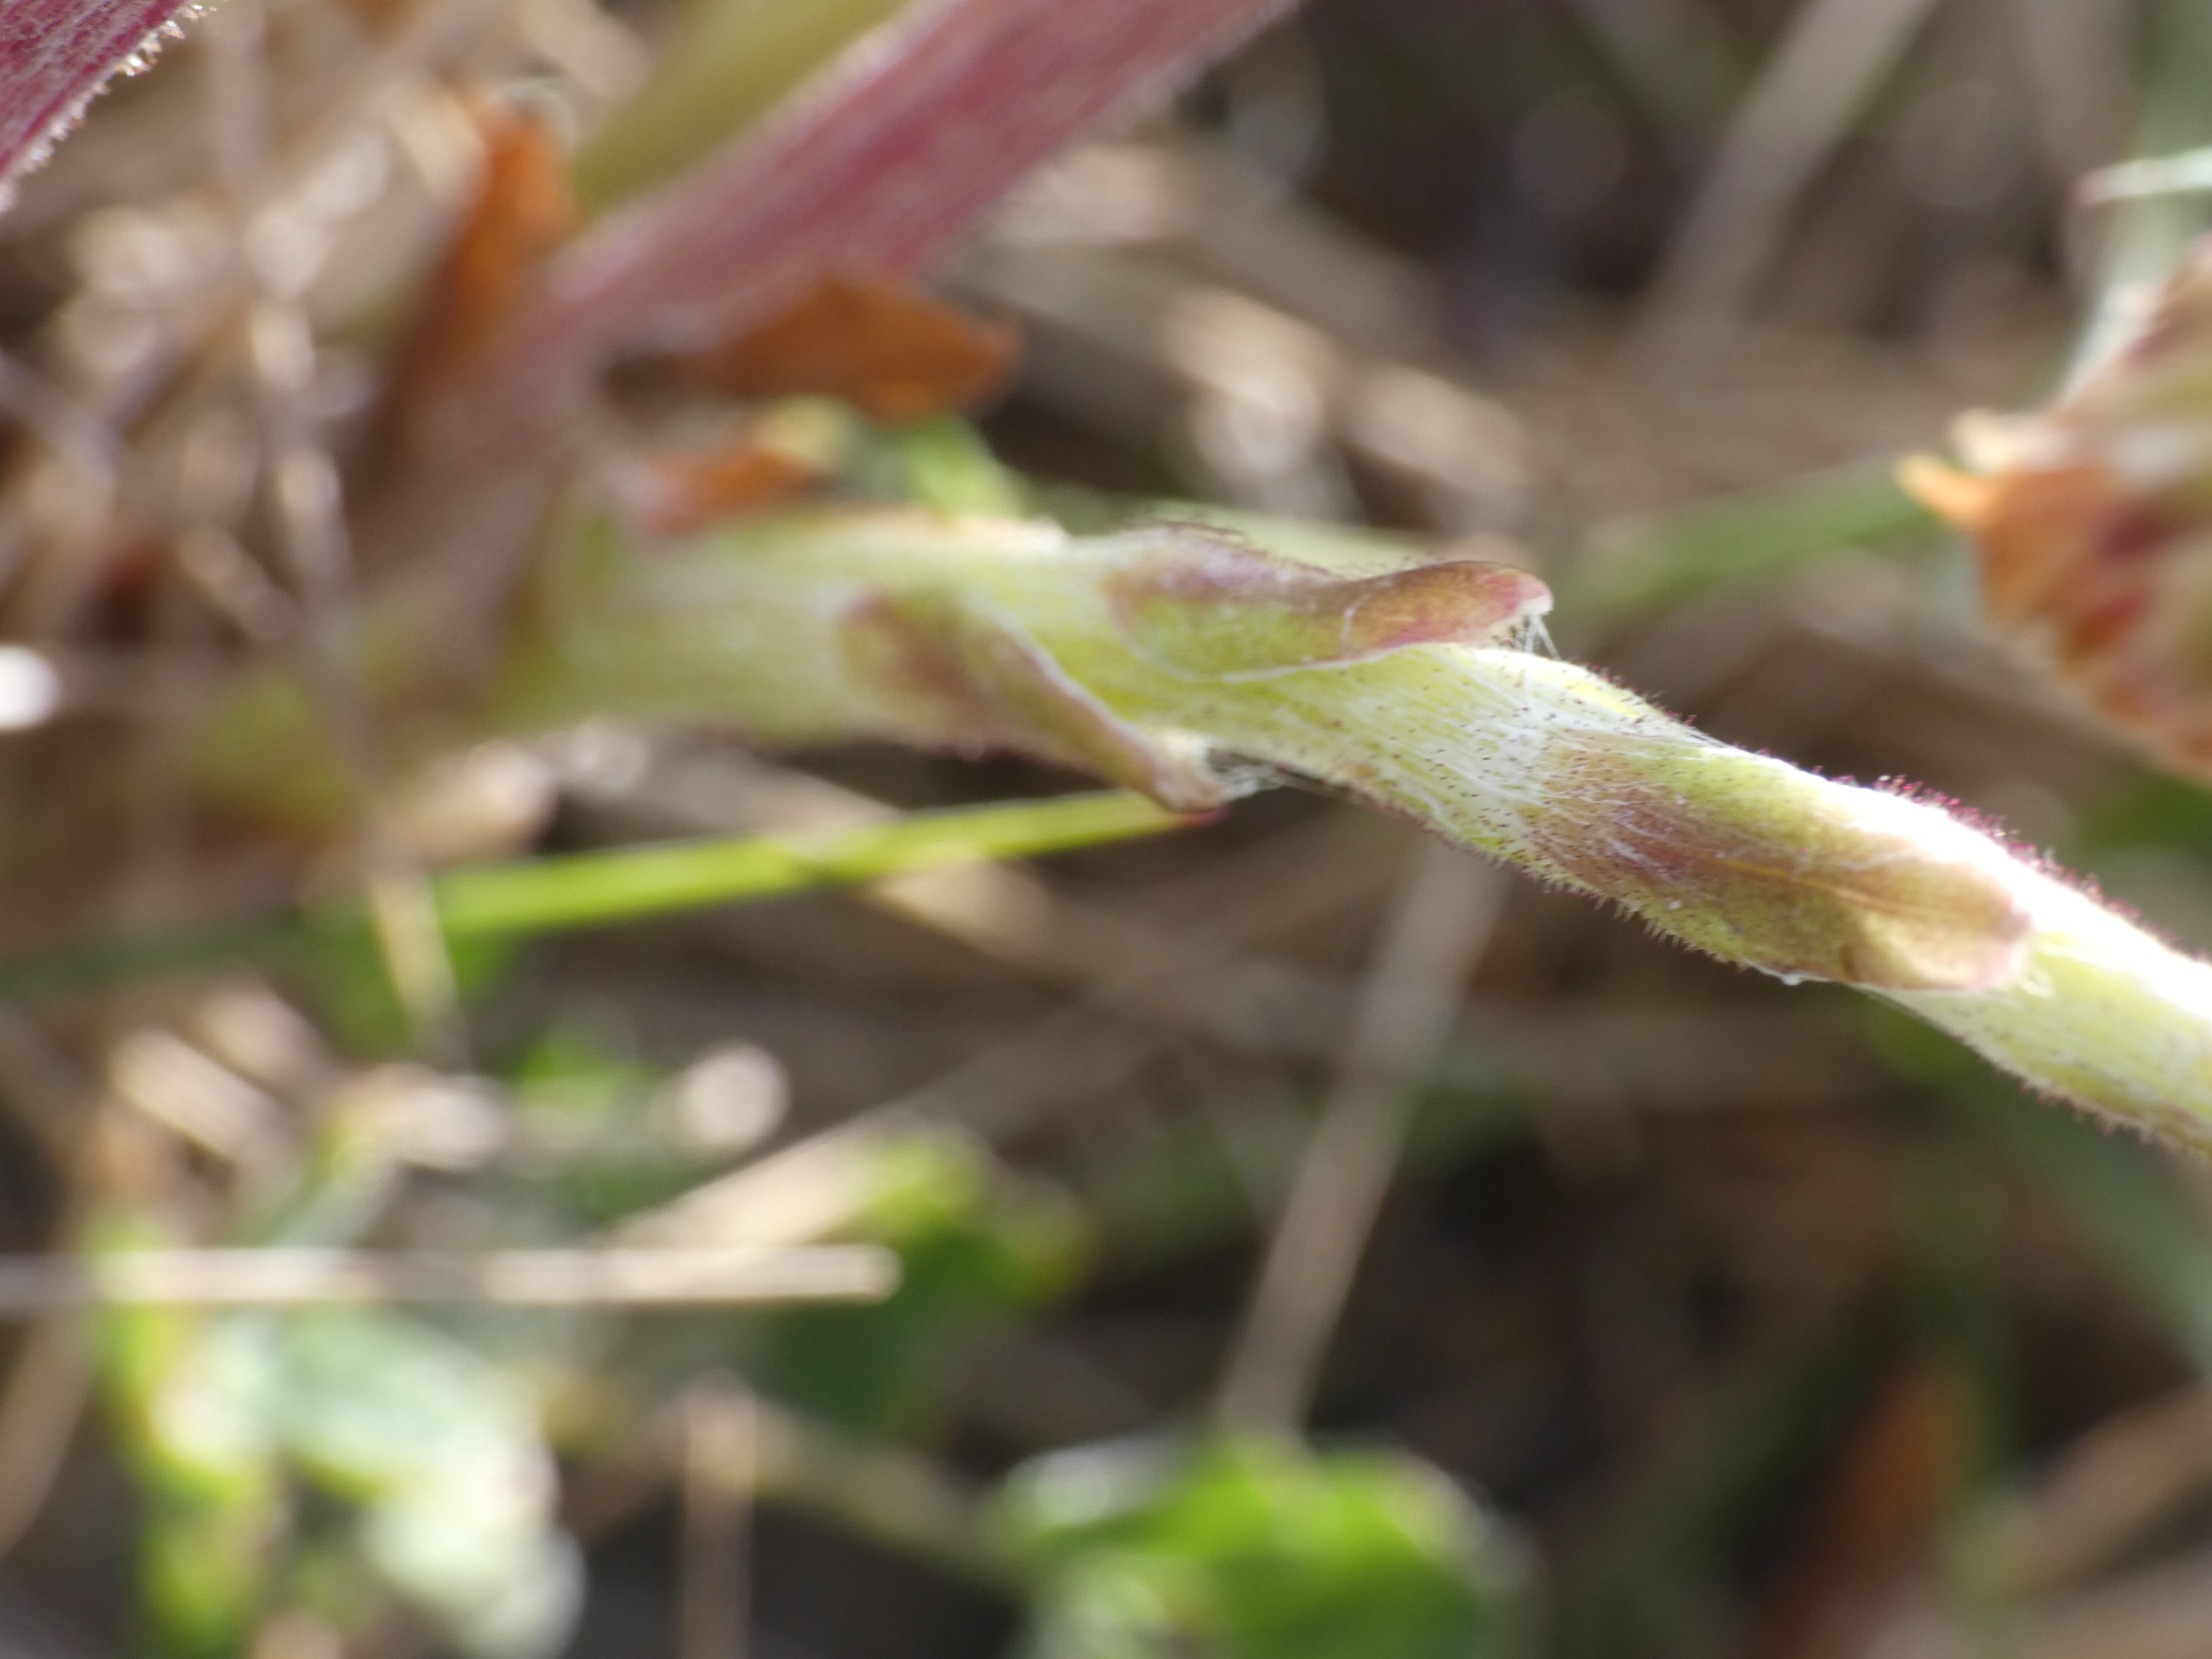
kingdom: Plantae
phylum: Tracheophyta
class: Magnoliopsida
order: Asterales
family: Asteraceae
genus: Tussilago
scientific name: Tussilago farfara
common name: Følfod
